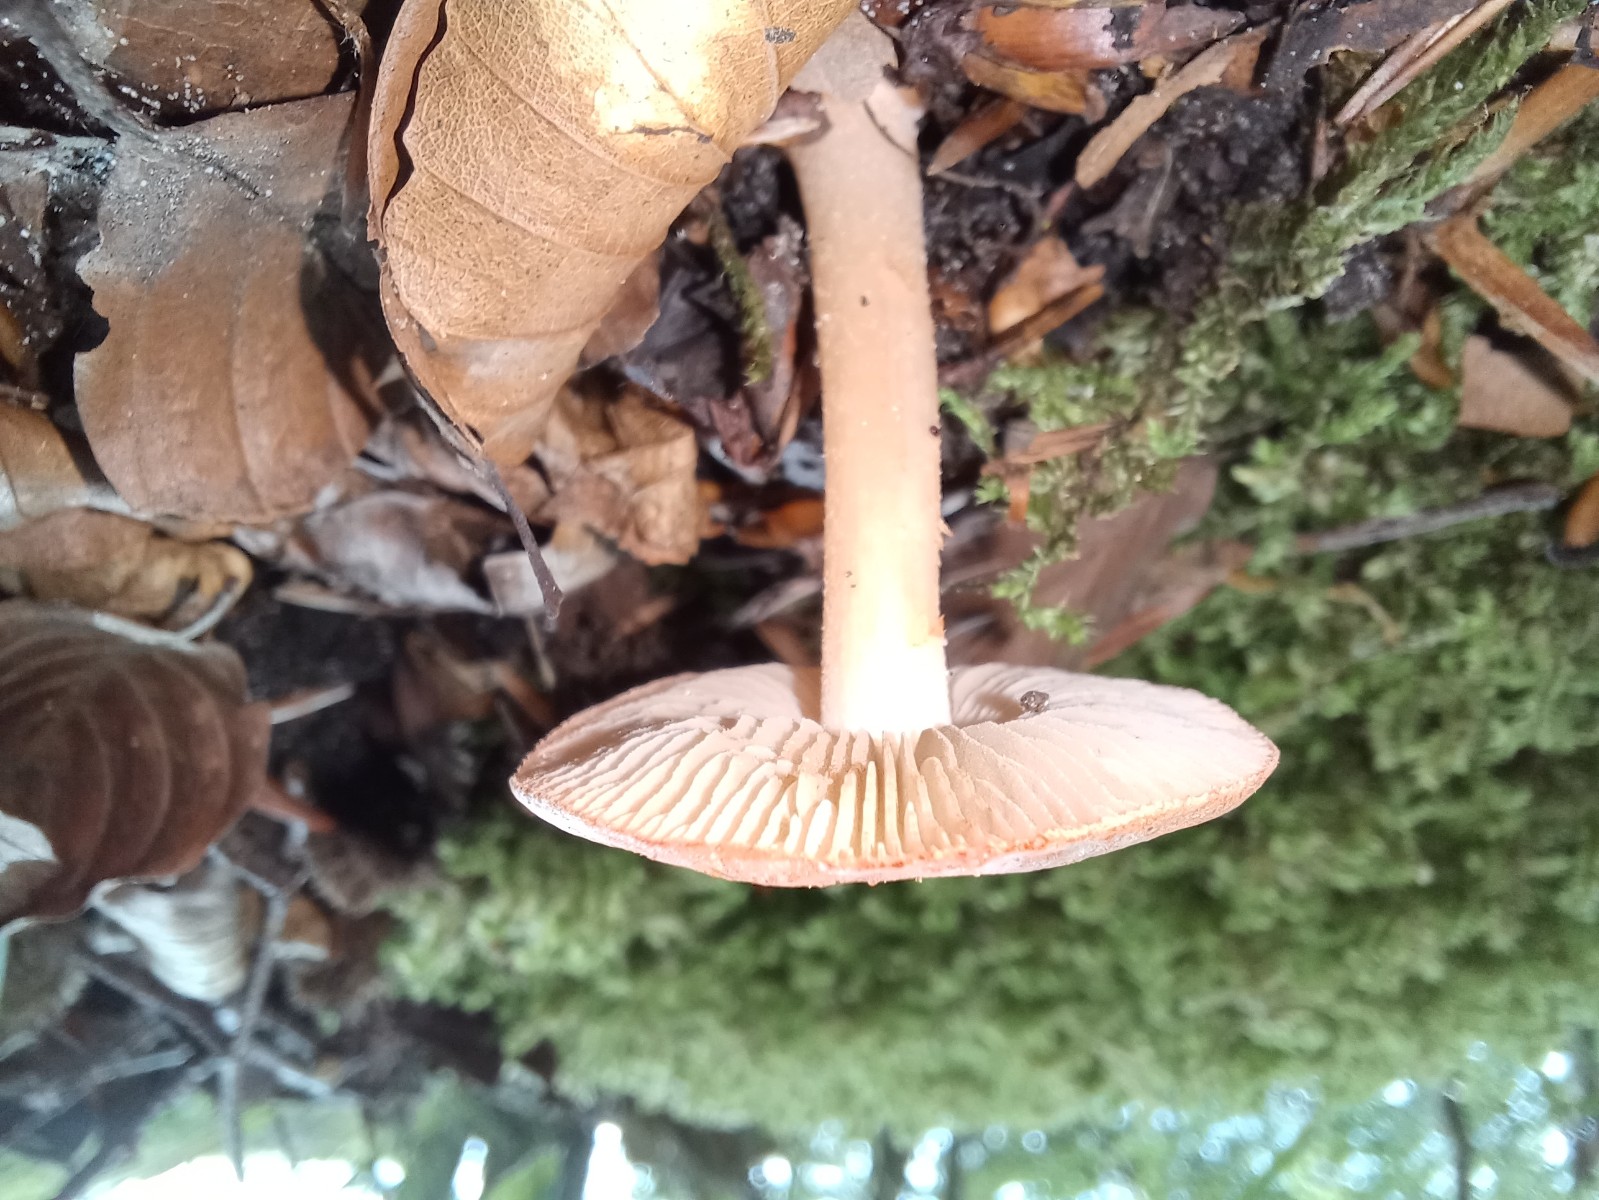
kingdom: Fungi
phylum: Basidiomycota
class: Agaricomycetes
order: Agaricales
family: Inocybaceae
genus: Inocybe
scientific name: Inocybe godeyi
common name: orangerødmende trævlhat
